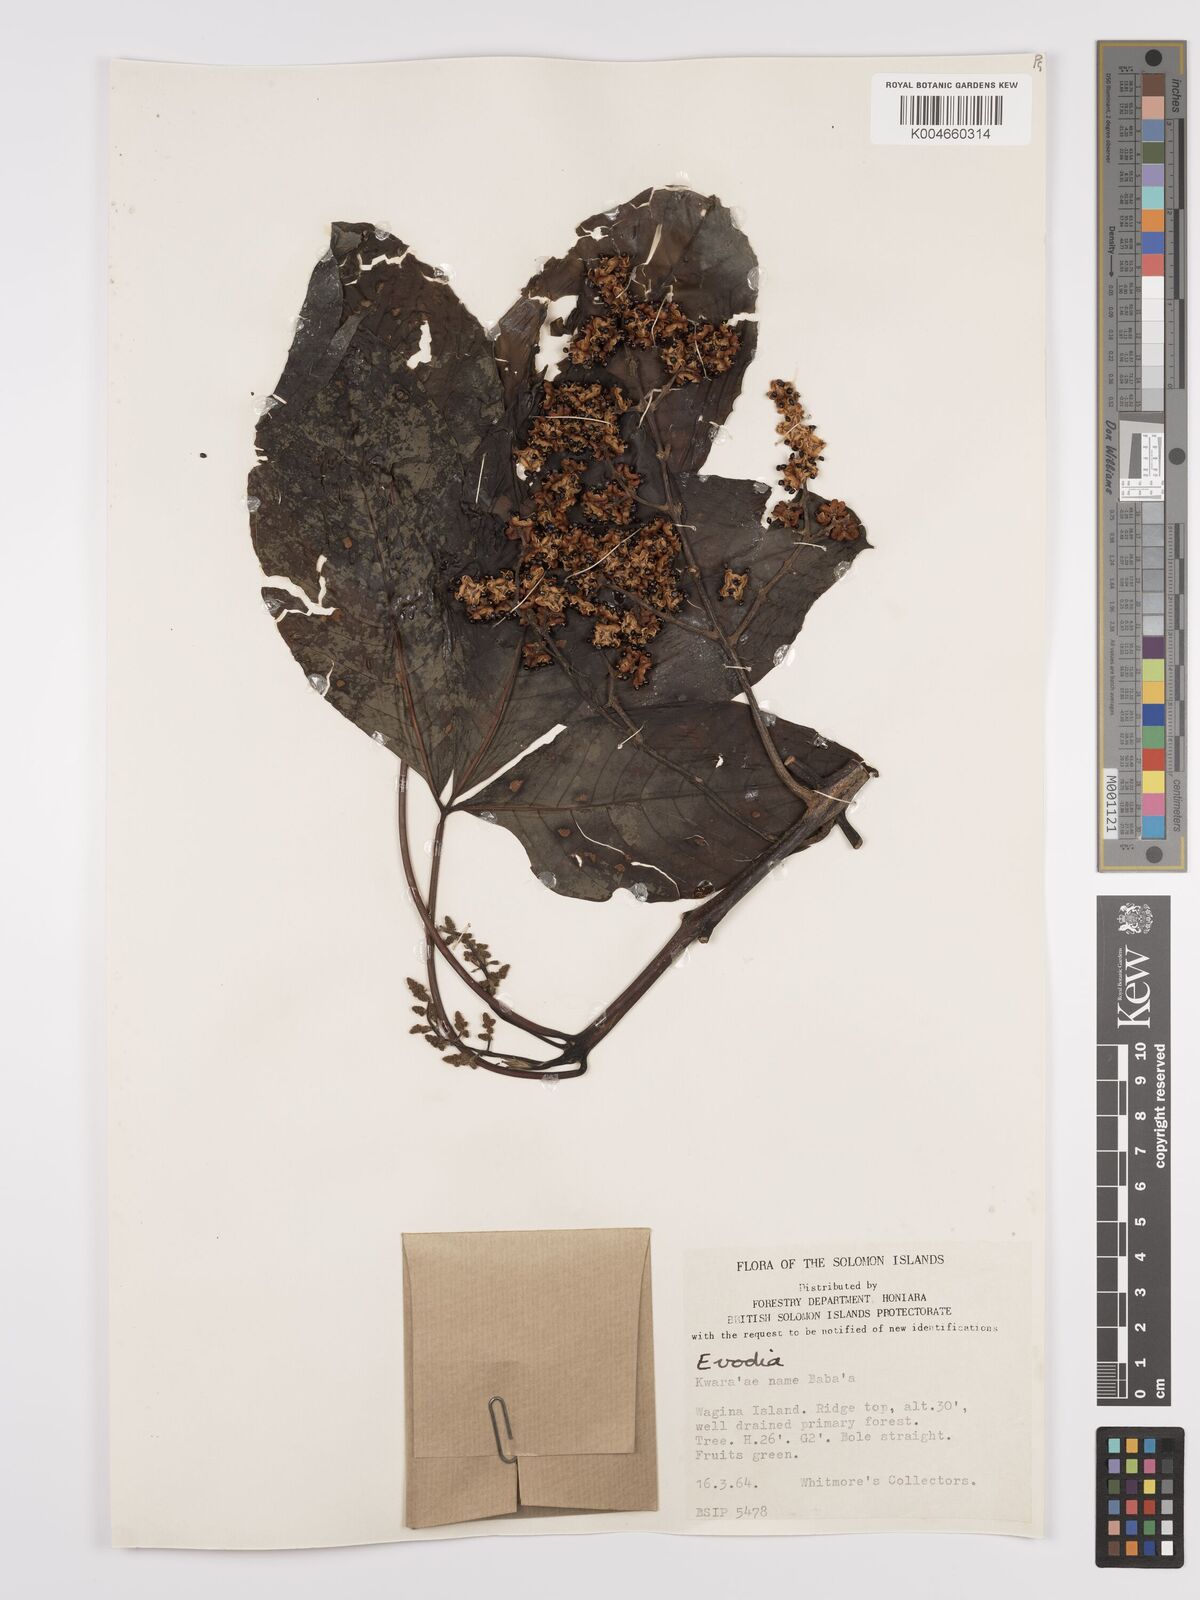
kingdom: Plantae
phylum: Tracheophyta
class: Magnoliopsida
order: Sapindales
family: Rutaceae
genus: Euodia
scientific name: Euodia
